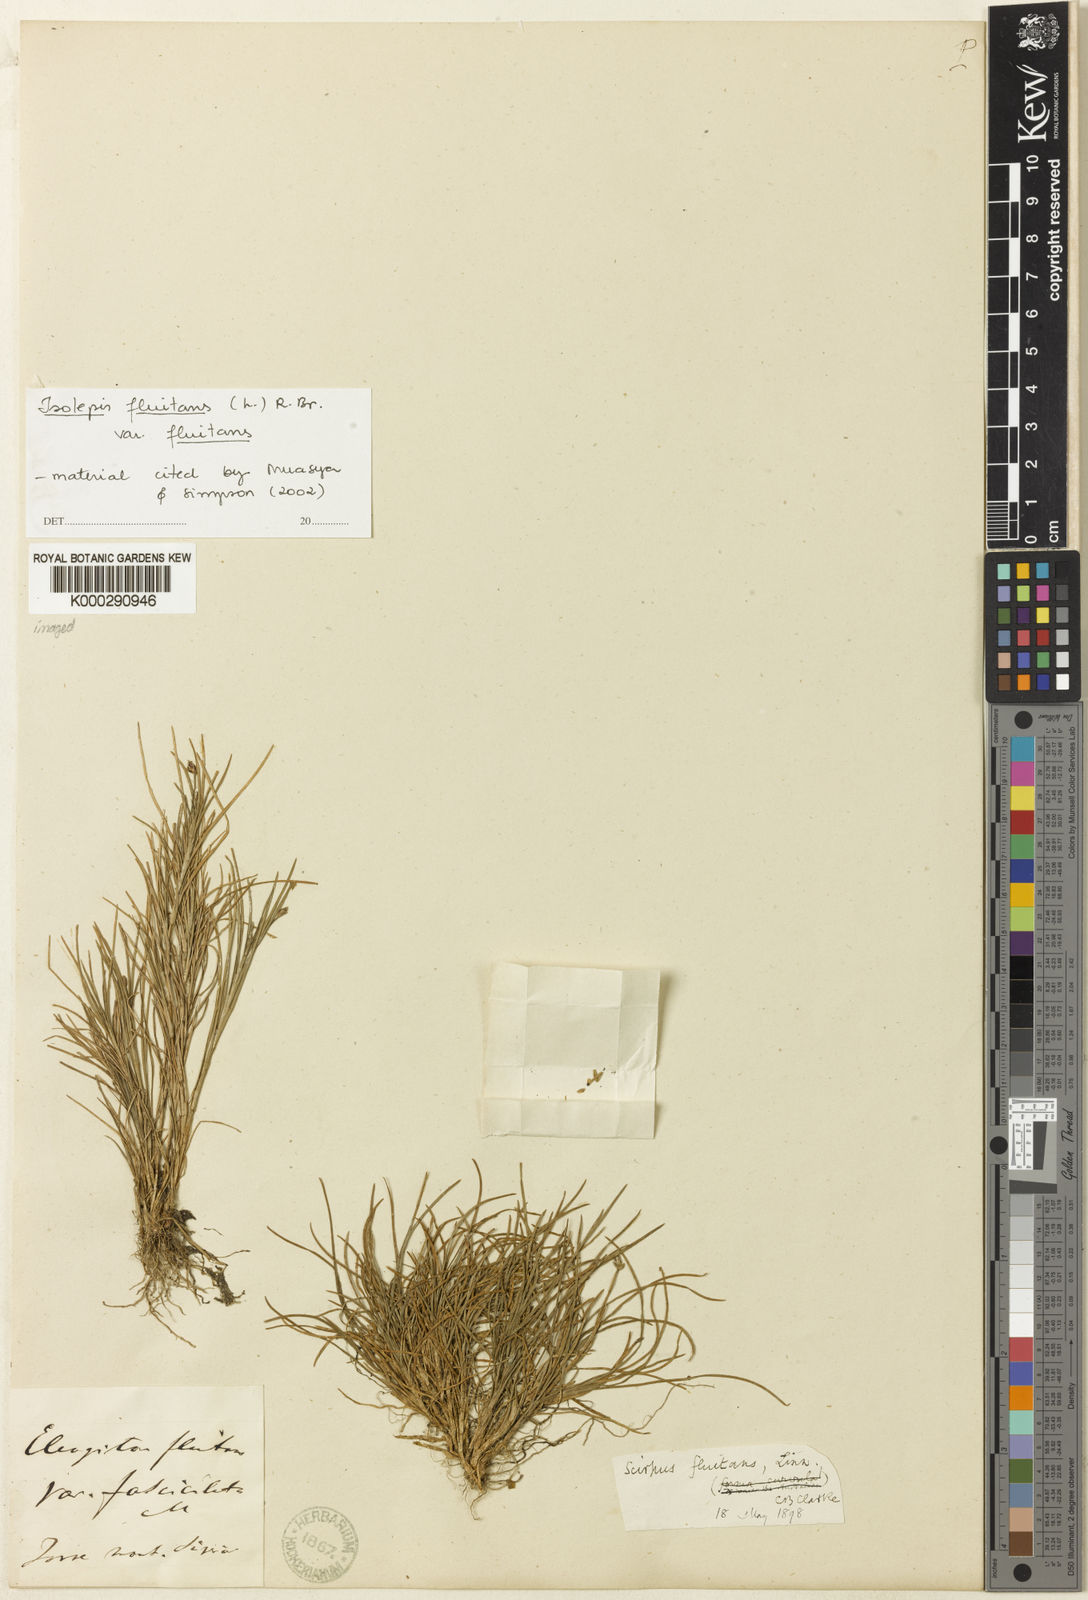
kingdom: Plantae
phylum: Tracheophyta
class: Liliopsida
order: Poales
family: Cyperaceae
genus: Isolepis
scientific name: Isolepis fluitans
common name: Floating club-rush
